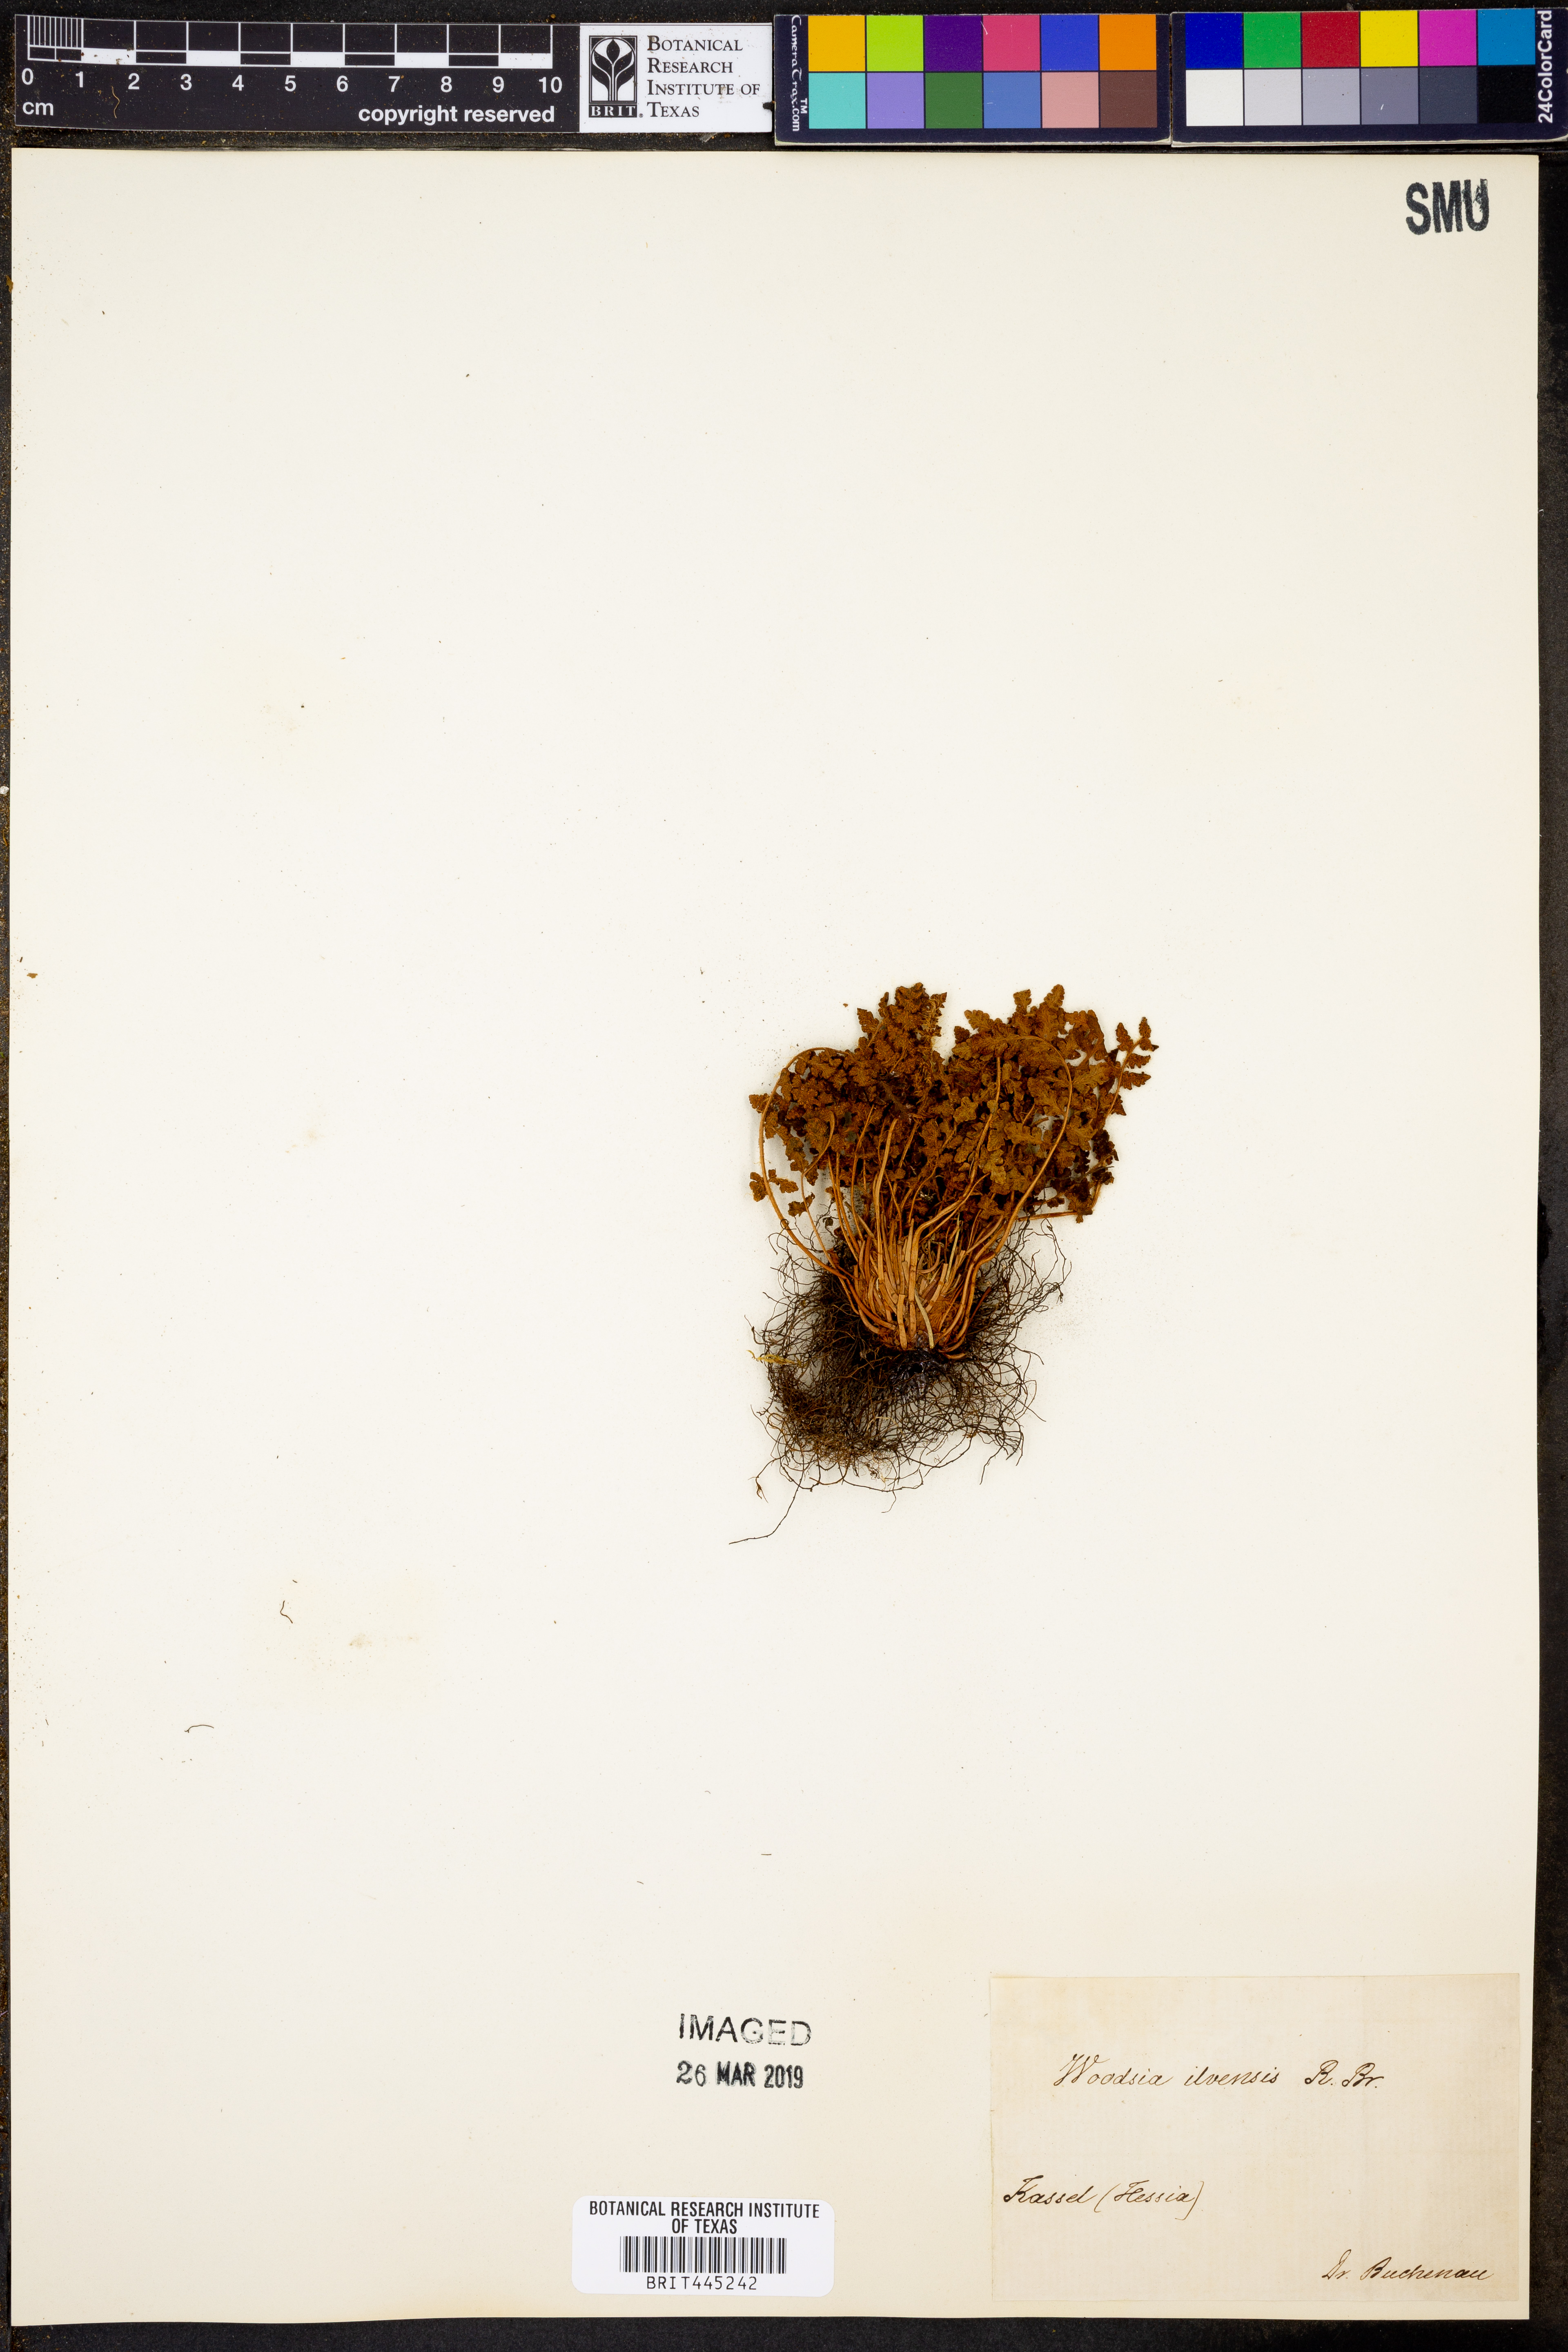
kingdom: Plantae
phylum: Tracheophyta
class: Polypodiopsida
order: Polypodiales
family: Woodsiaceae
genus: Woodsia
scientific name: Woodsia ilvensis
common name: Fragrant woodsia
